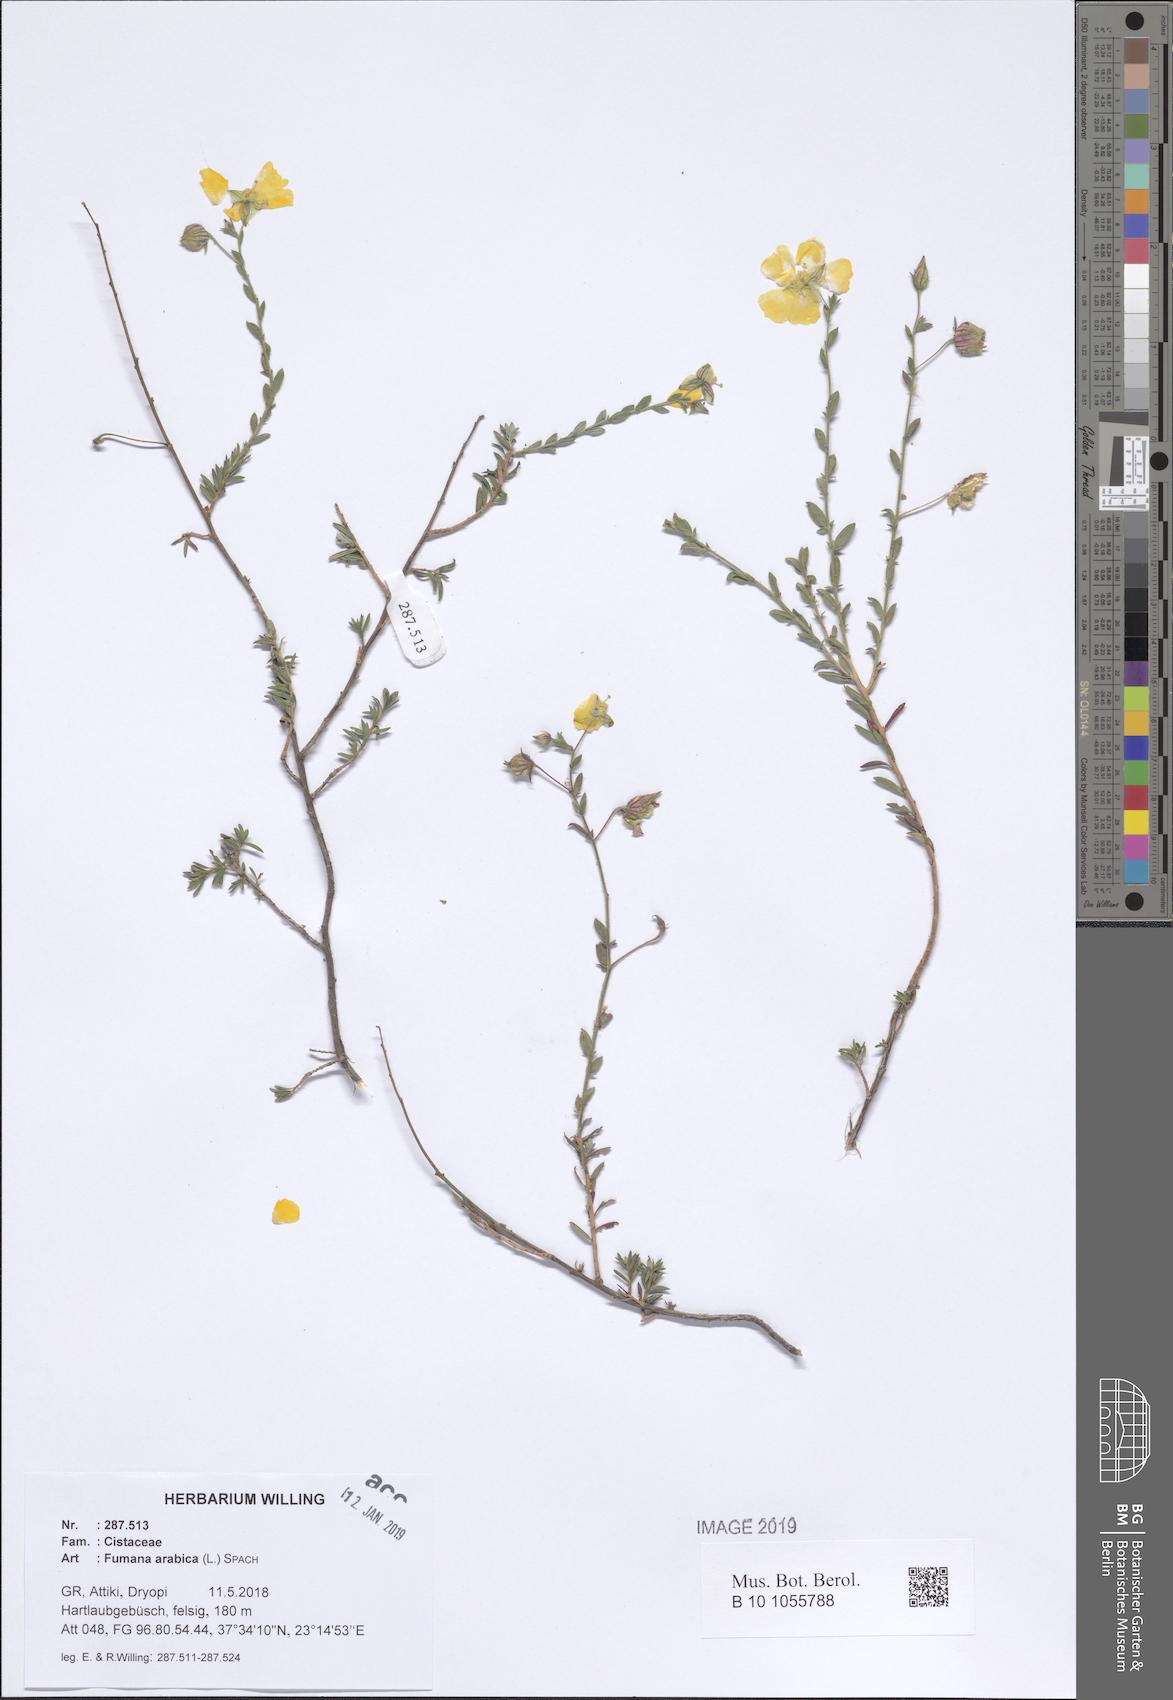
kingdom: Plantae
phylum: Tracheophyta
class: Magnoliopsida
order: Malvales
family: Cistaceae
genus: Fumana
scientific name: Fumana arabica
